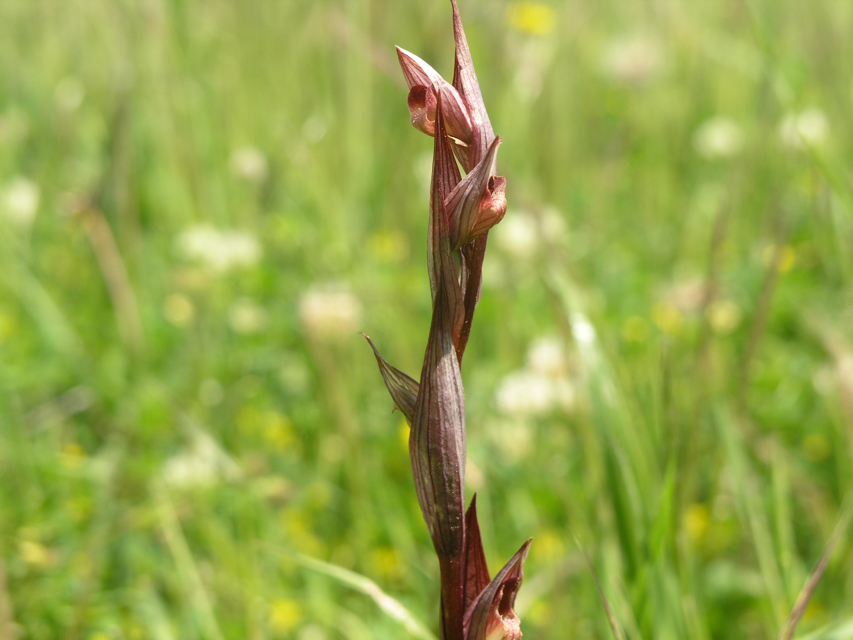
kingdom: Plantae
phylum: Tracheophyta
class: Liliopsida
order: Asparagales
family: Orchidaceae
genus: Serapias
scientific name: Serapias
